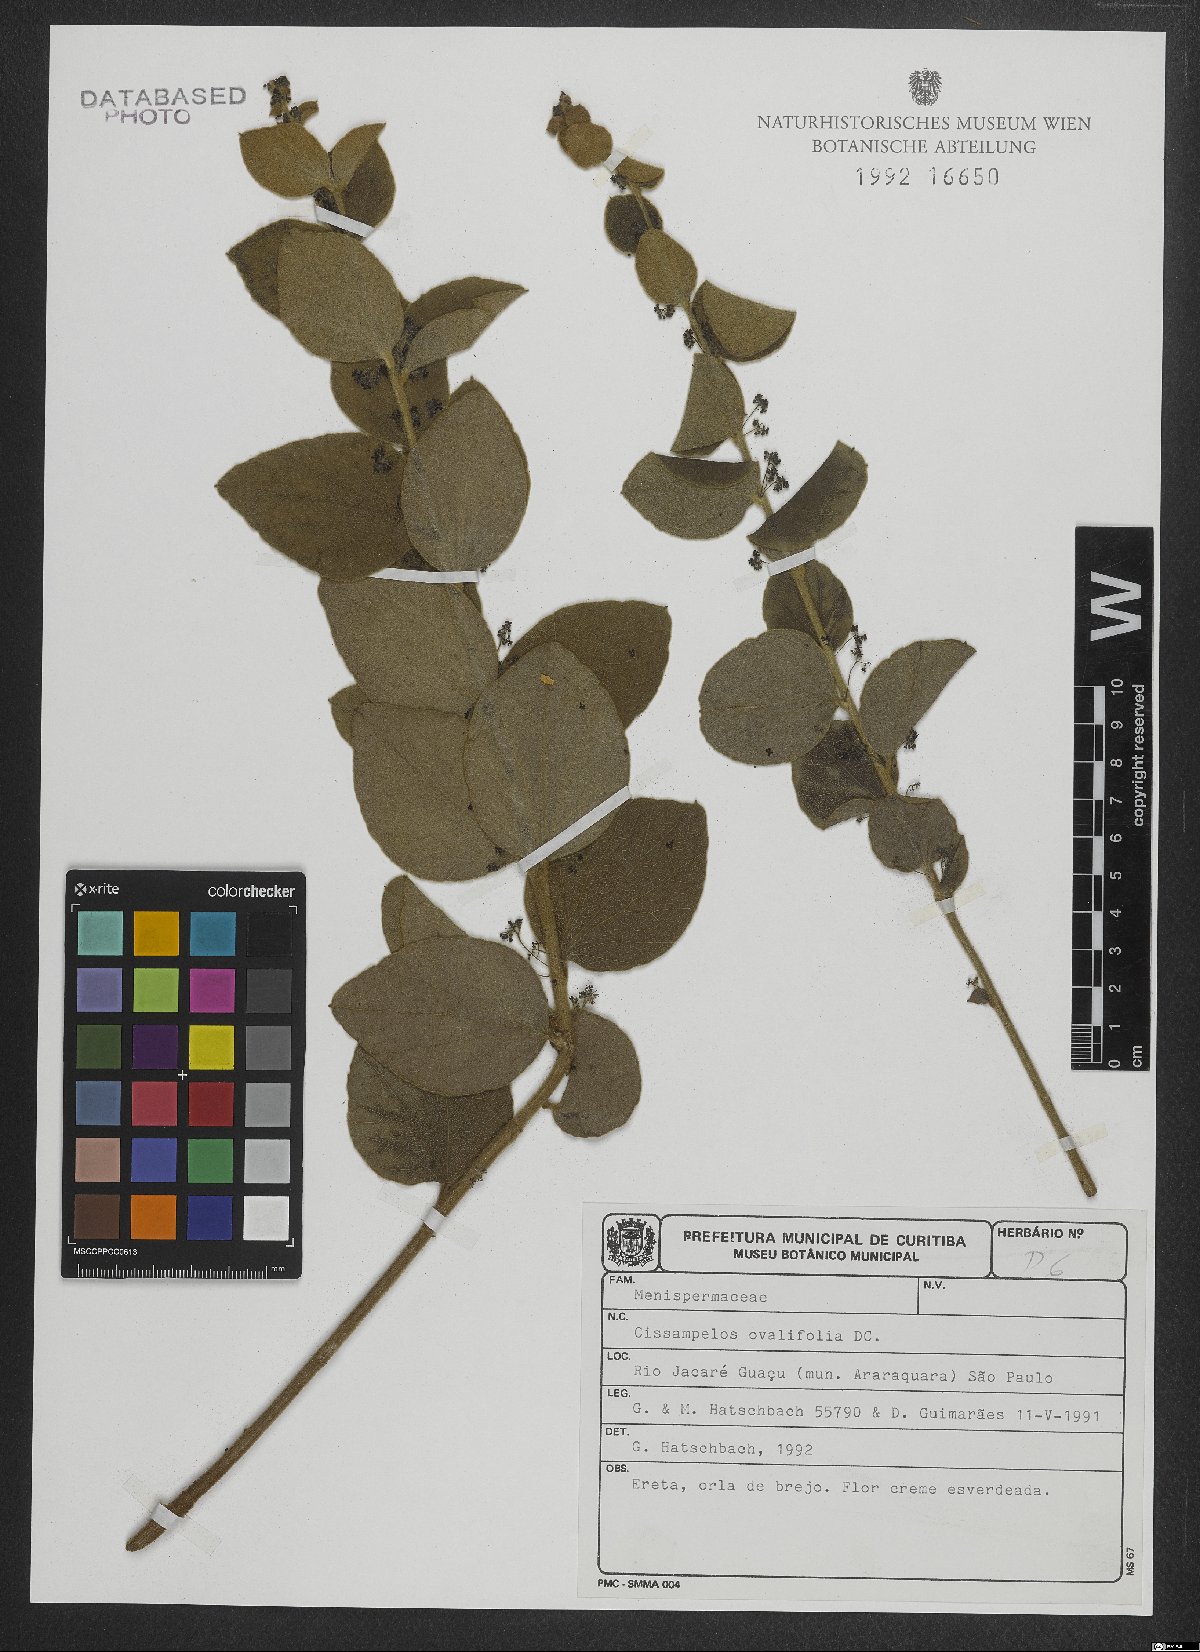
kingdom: Plantae
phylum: Tracheophyta
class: Magnoliopsida
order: Ranunculales
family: Menispermaceae
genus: Cissampelos
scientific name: Cissampelos ovalifolia
